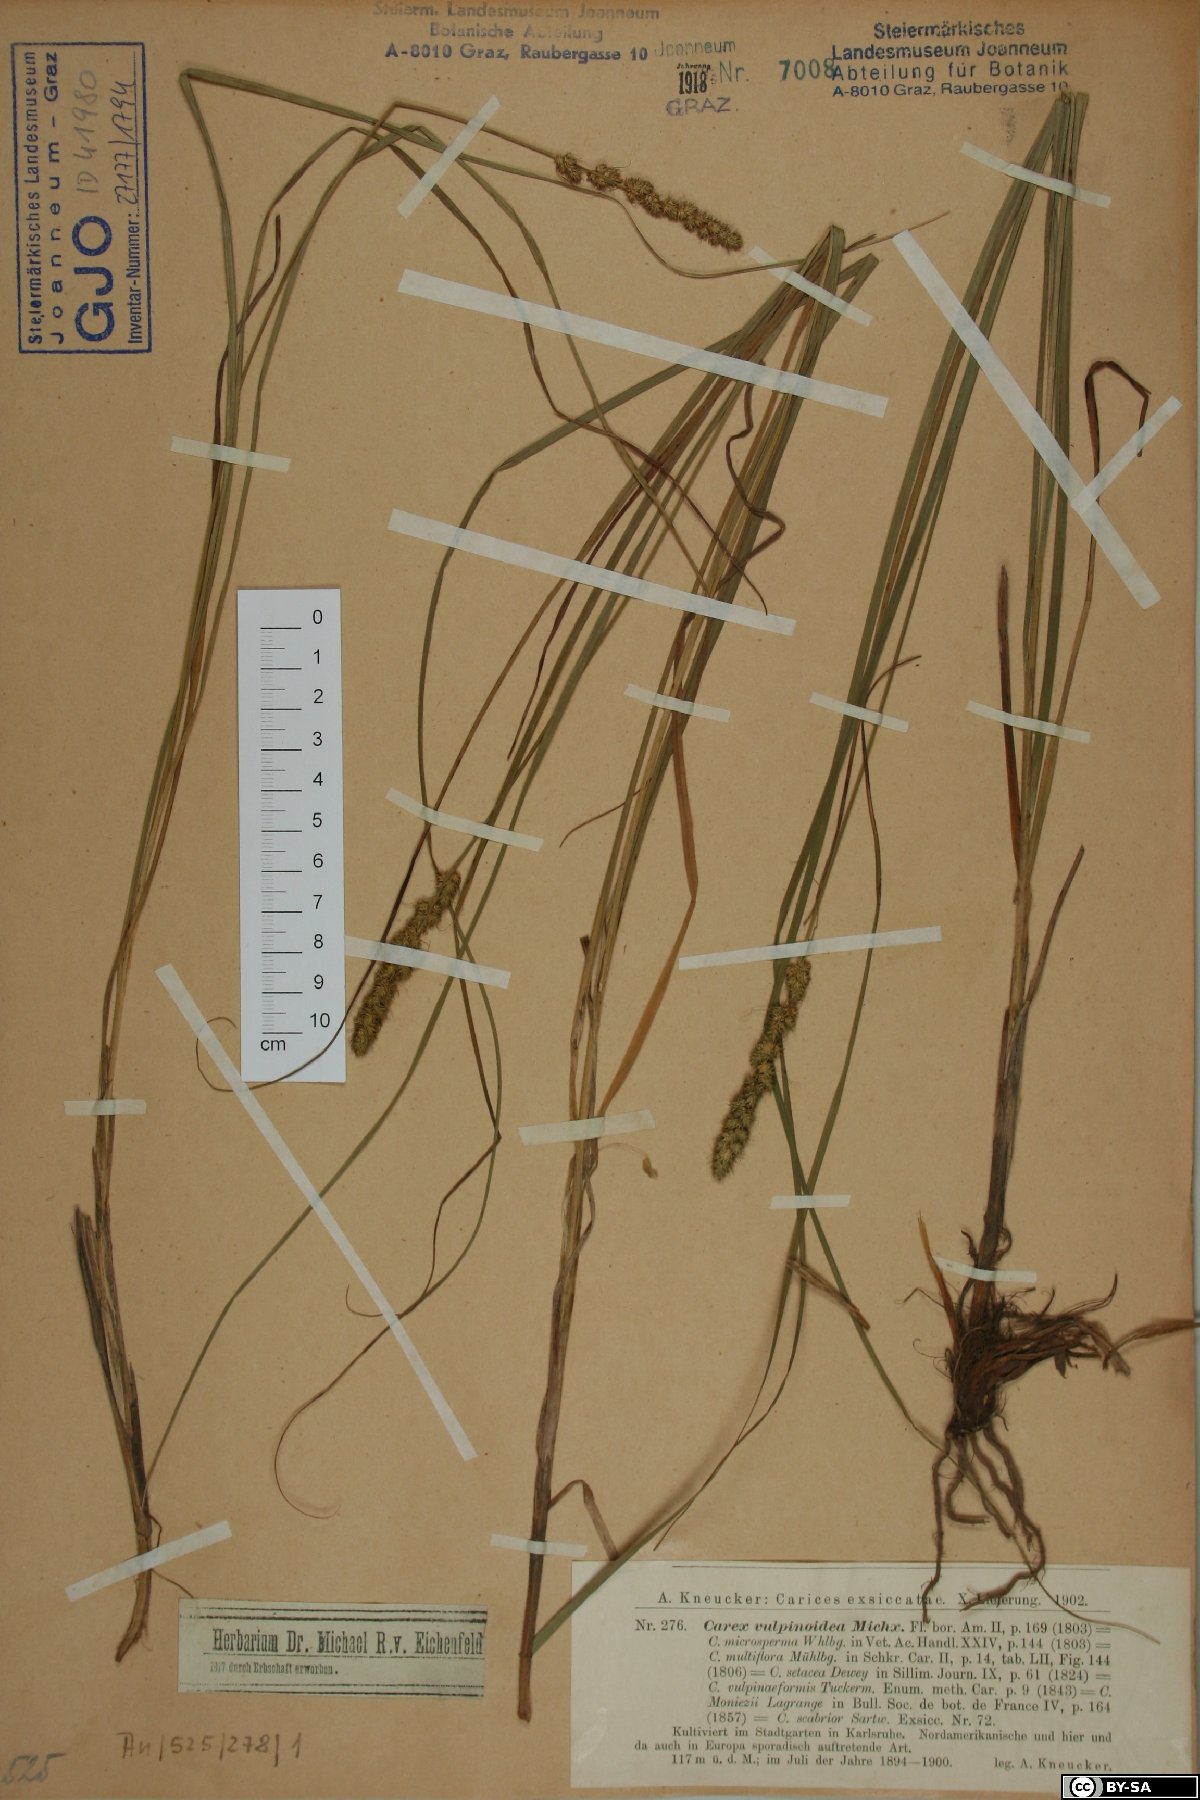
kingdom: Plantae
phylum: Tracheophyta
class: Liliopsida
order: Poales
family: Cyperaceae
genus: Carex
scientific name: Carex vulpinoidea
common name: American fox-sedge
